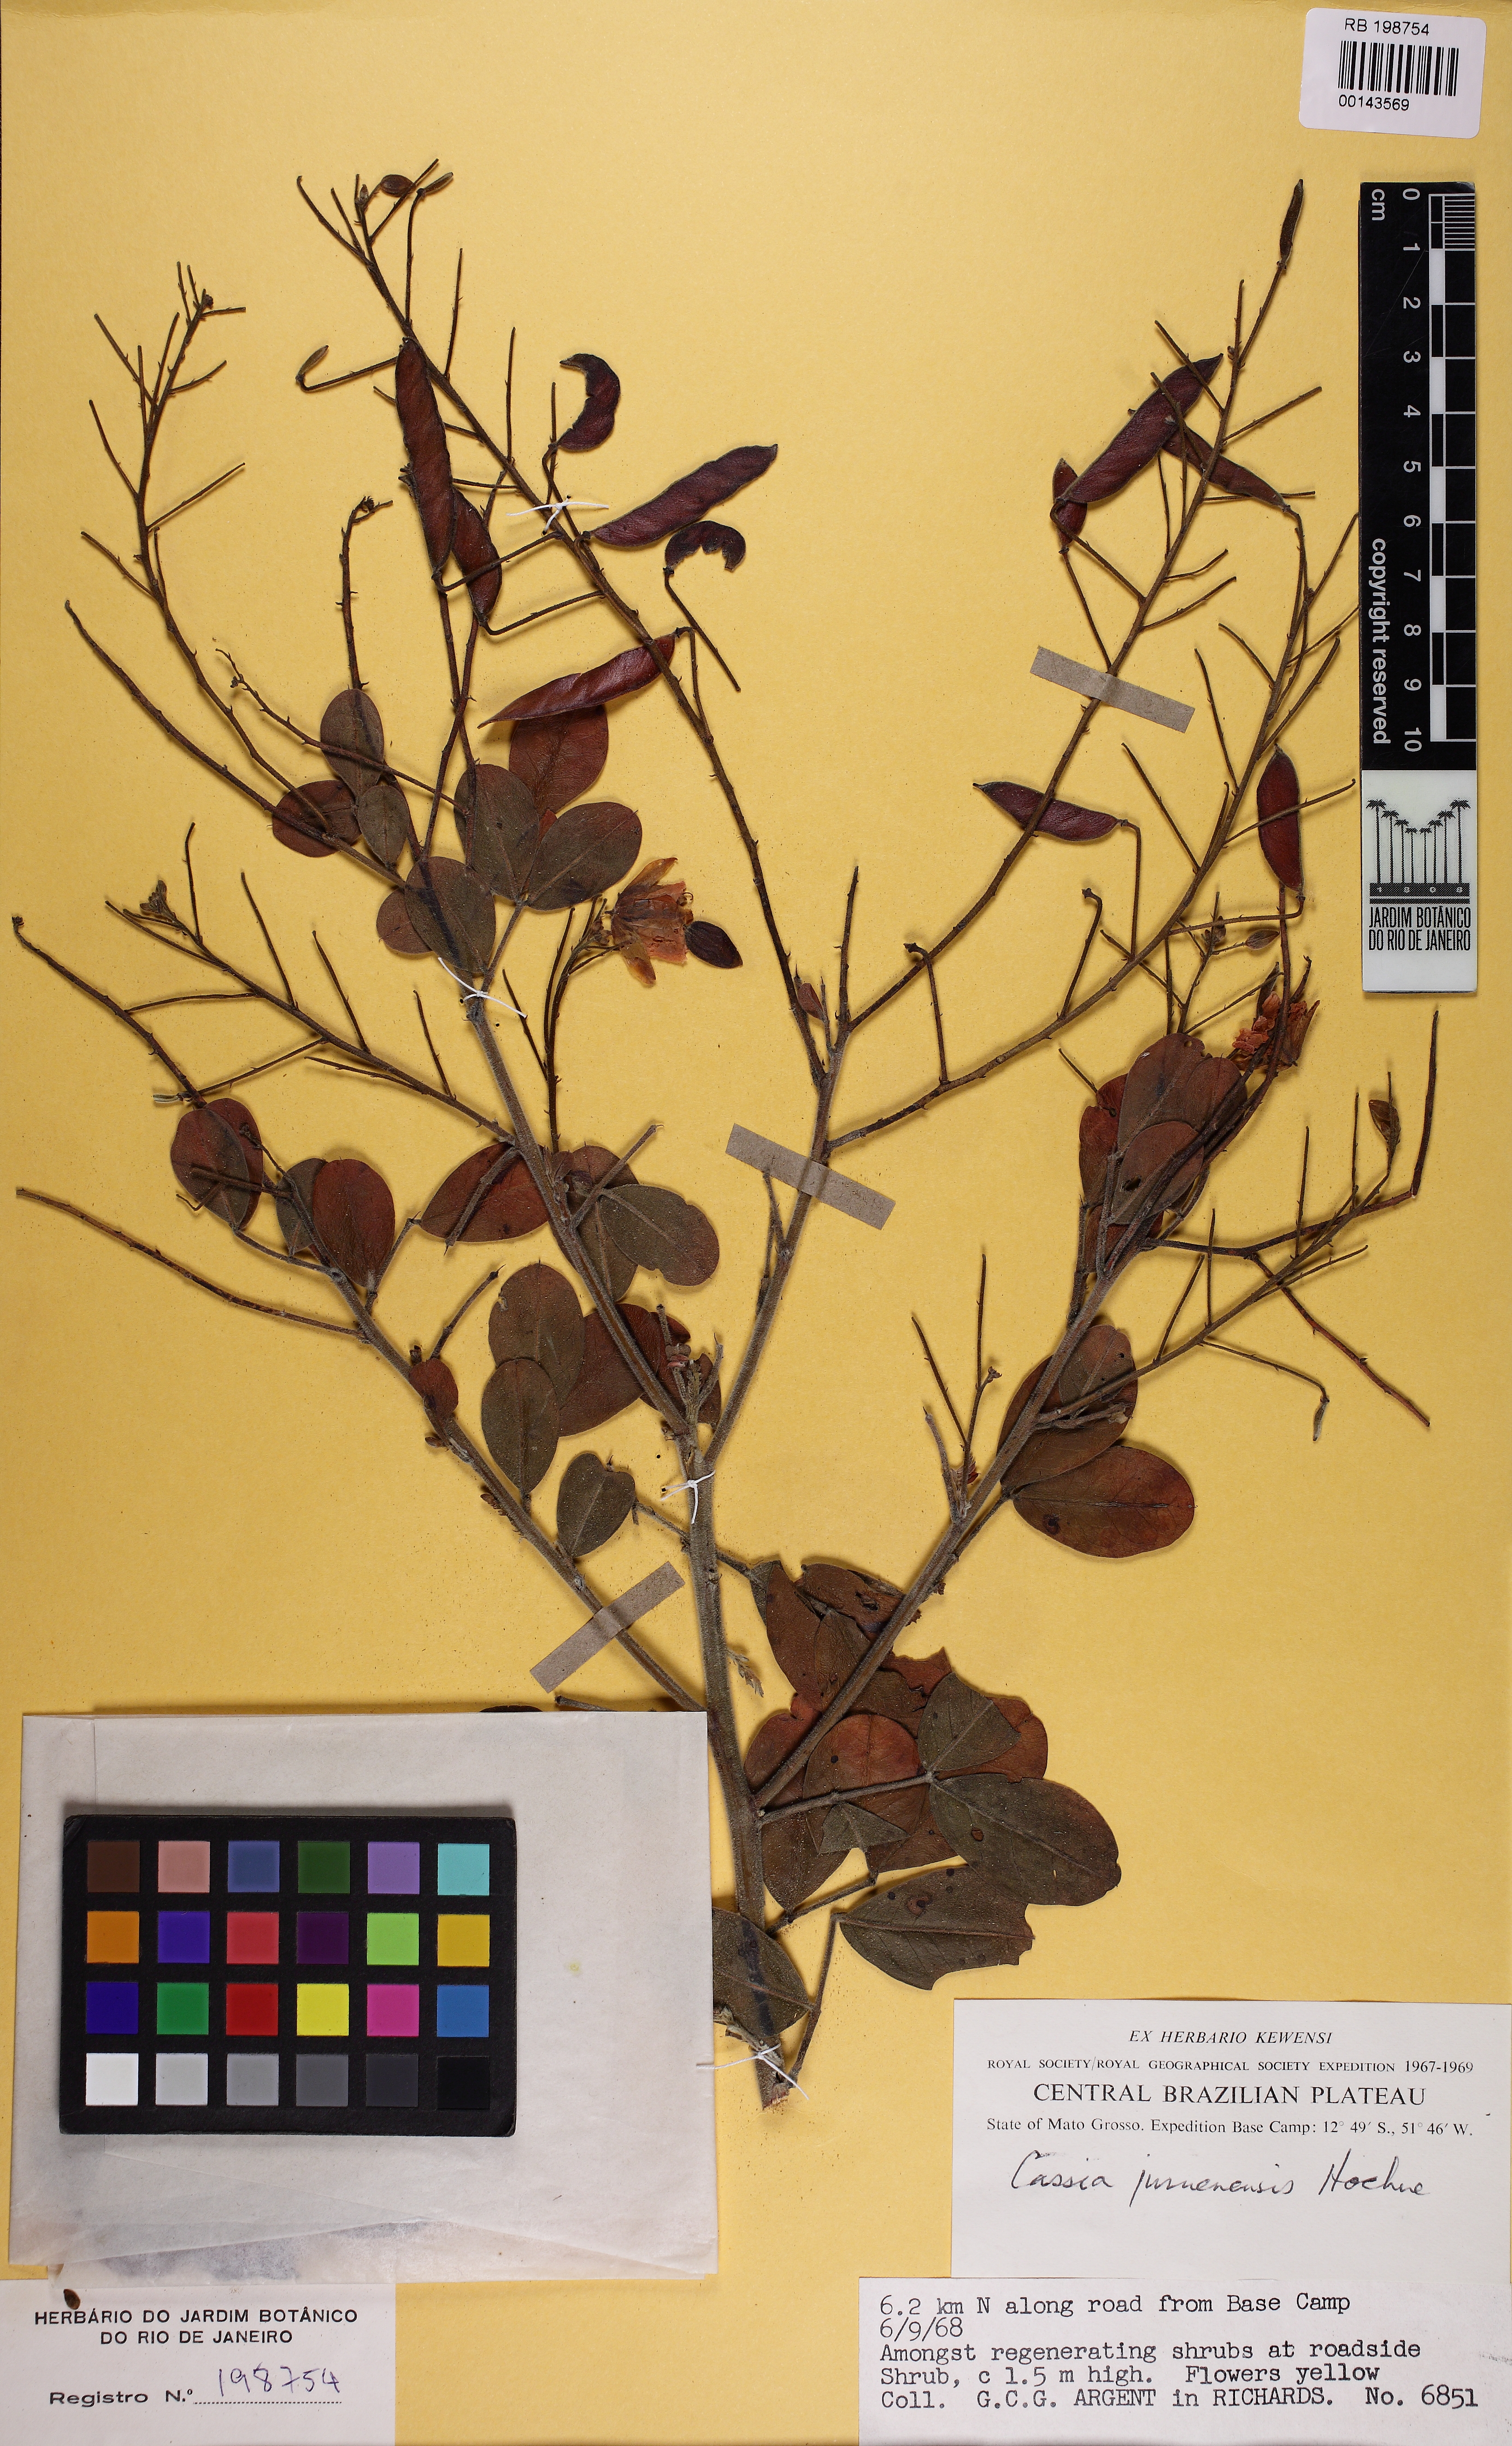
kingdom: Plantae
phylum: Tracheophyta
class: Magnoliopsida
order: Fabales
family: Fabaceae
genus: Chamaecrista
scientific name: Chamaecrista juruenensis
